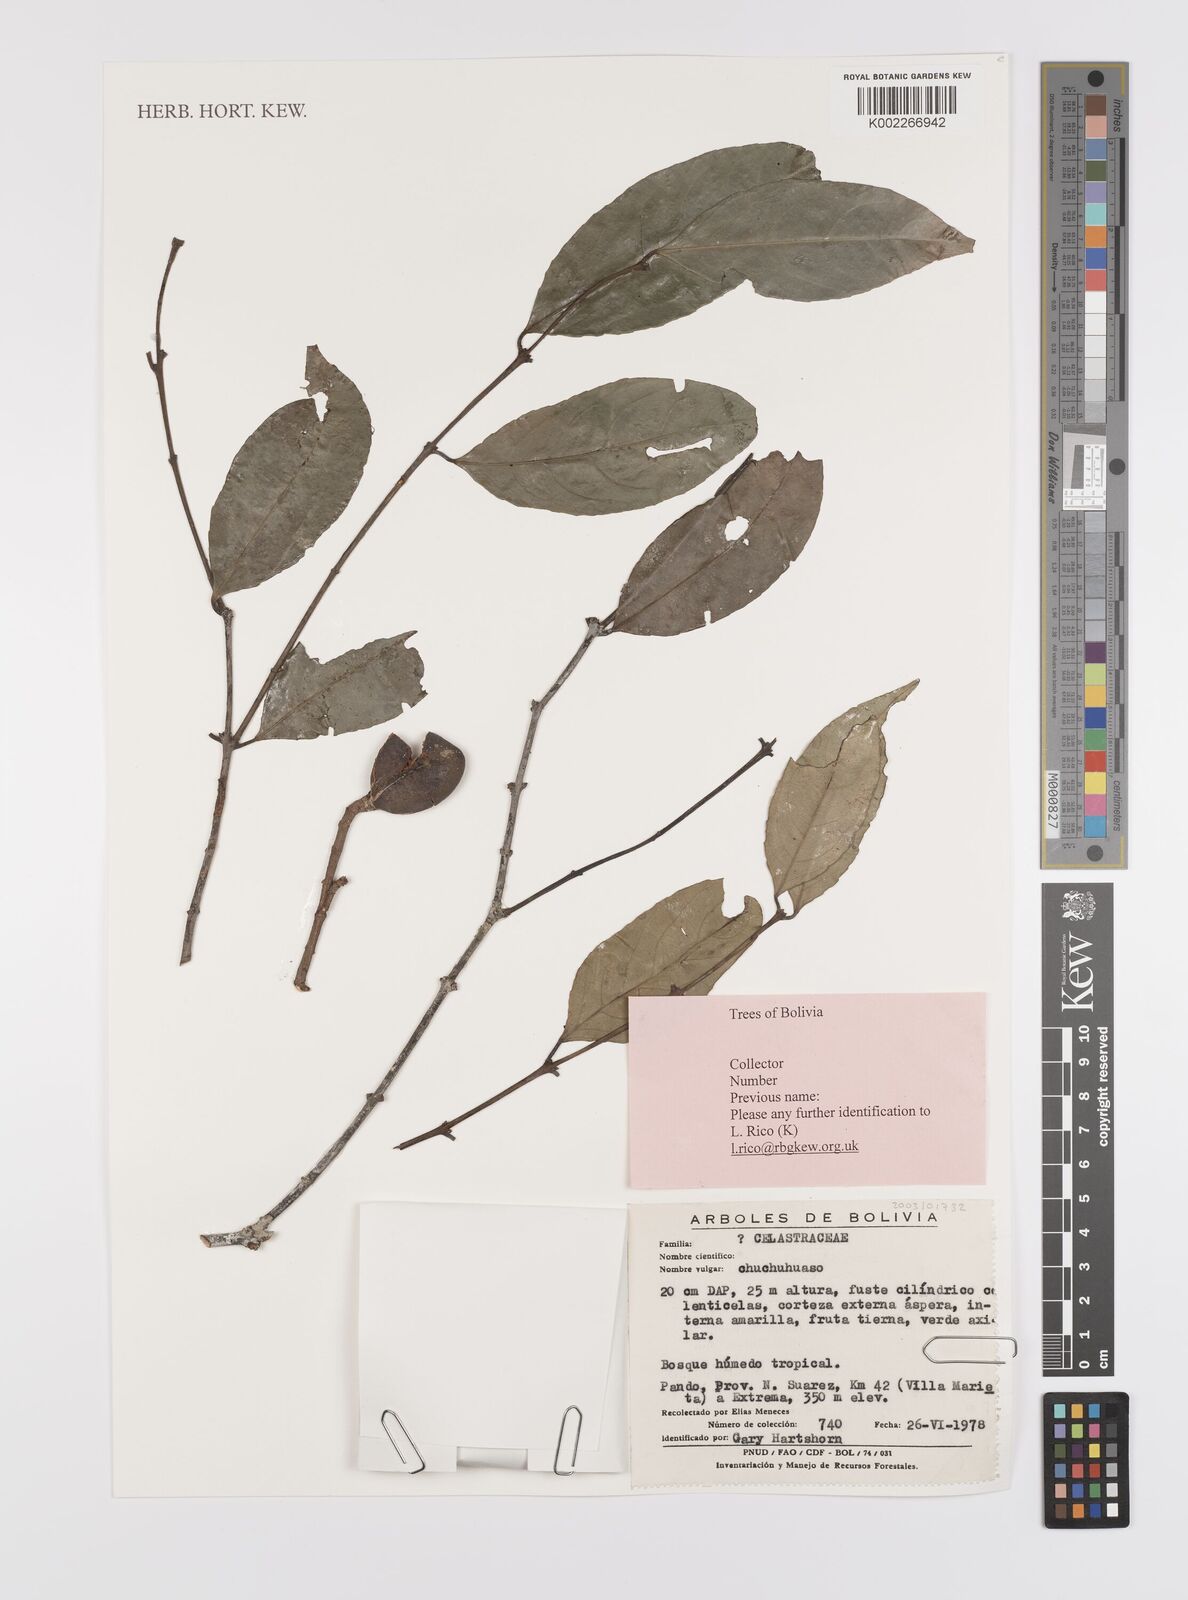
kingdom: Plantae
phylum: Tracheophyta
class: Magnoliopsida
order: Celastrales
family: Celastraceae
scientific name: Celastraceae
